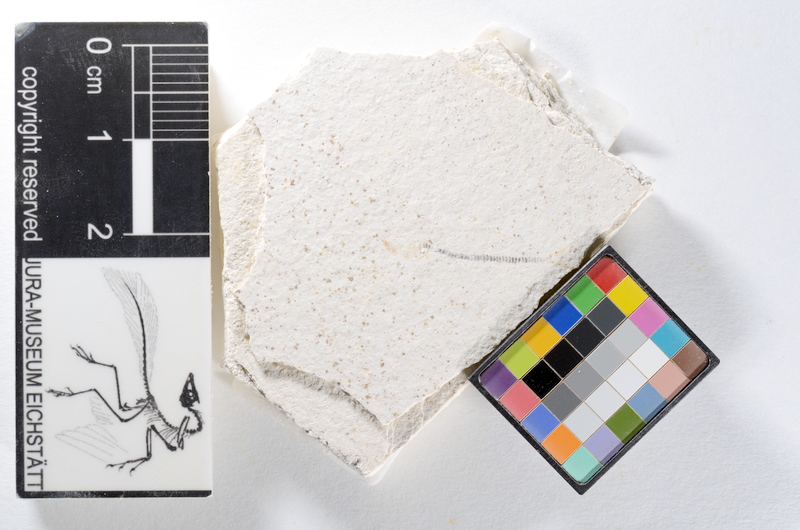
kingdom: Animalia
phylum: Chordata
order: Salmoniformes
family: Orthogonikleithridae
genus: Orthogonikleithrus
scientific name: Orthogonikleithrus hoelli
